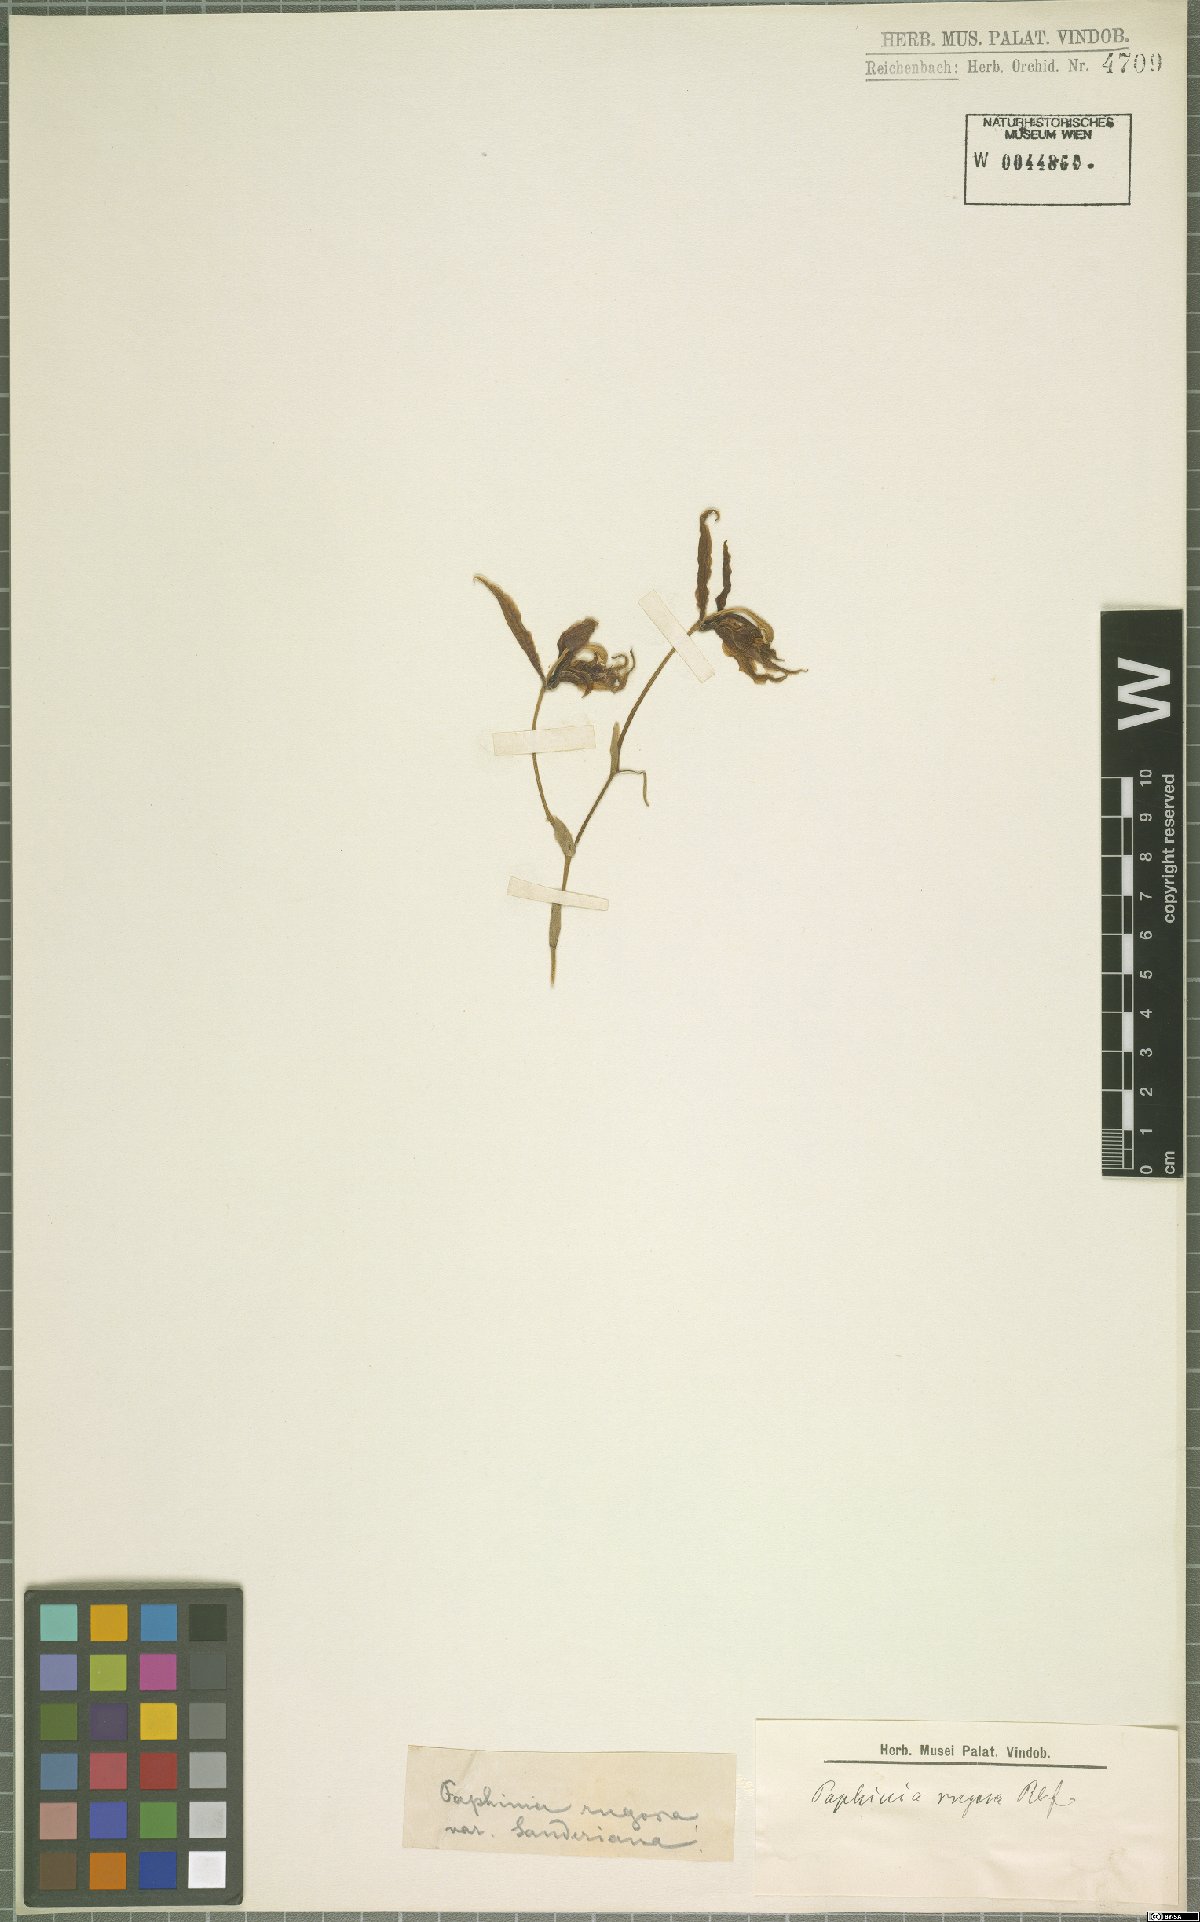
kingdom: Plantae
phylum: Tracheophyta
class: Liliopsida
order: Asparagales
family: Orchidaceae
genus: Paphinia
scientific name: Paphinia rugosa
